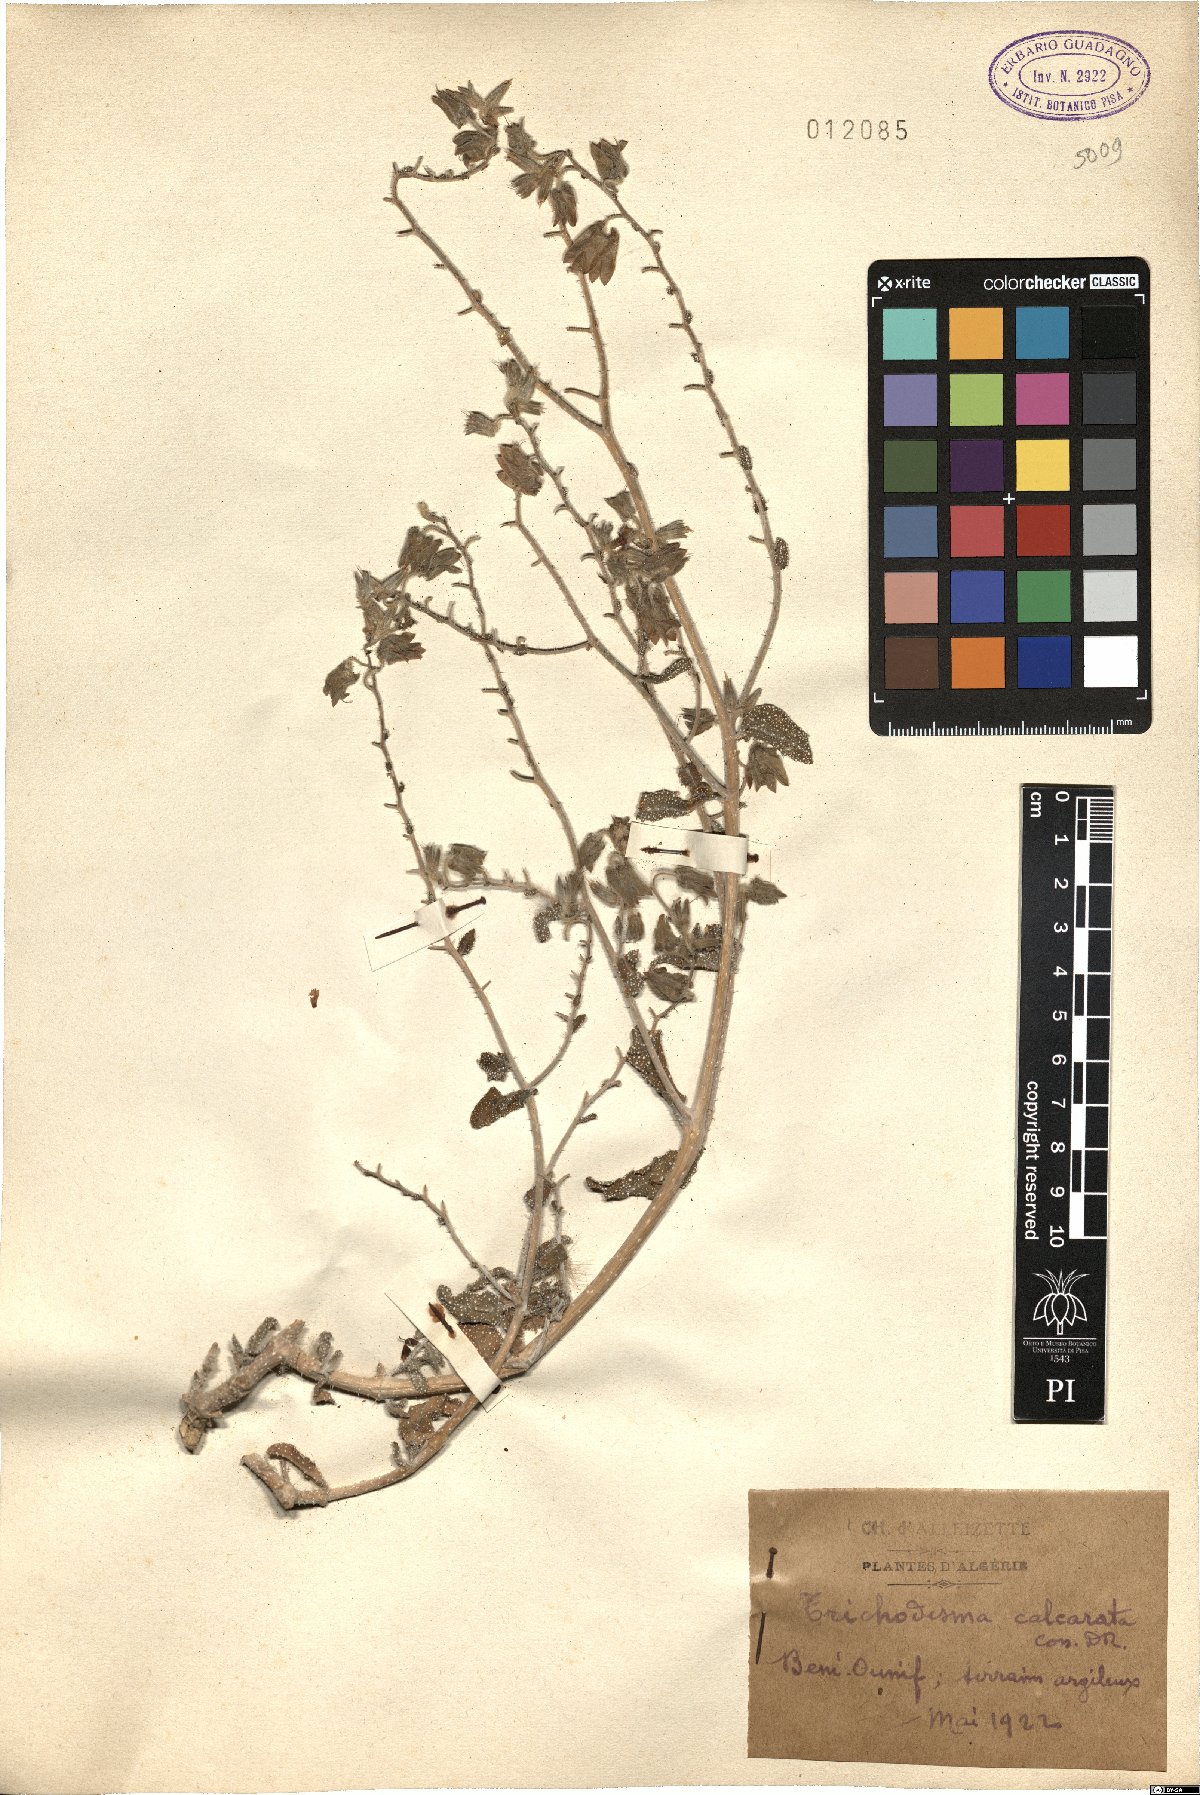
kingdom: Plantae
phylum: Tracheophyta
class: Magnoliopsida
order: Boraginales
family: Boraginaceae
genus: Trichodesma
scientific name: Trichodesma calcaratum
